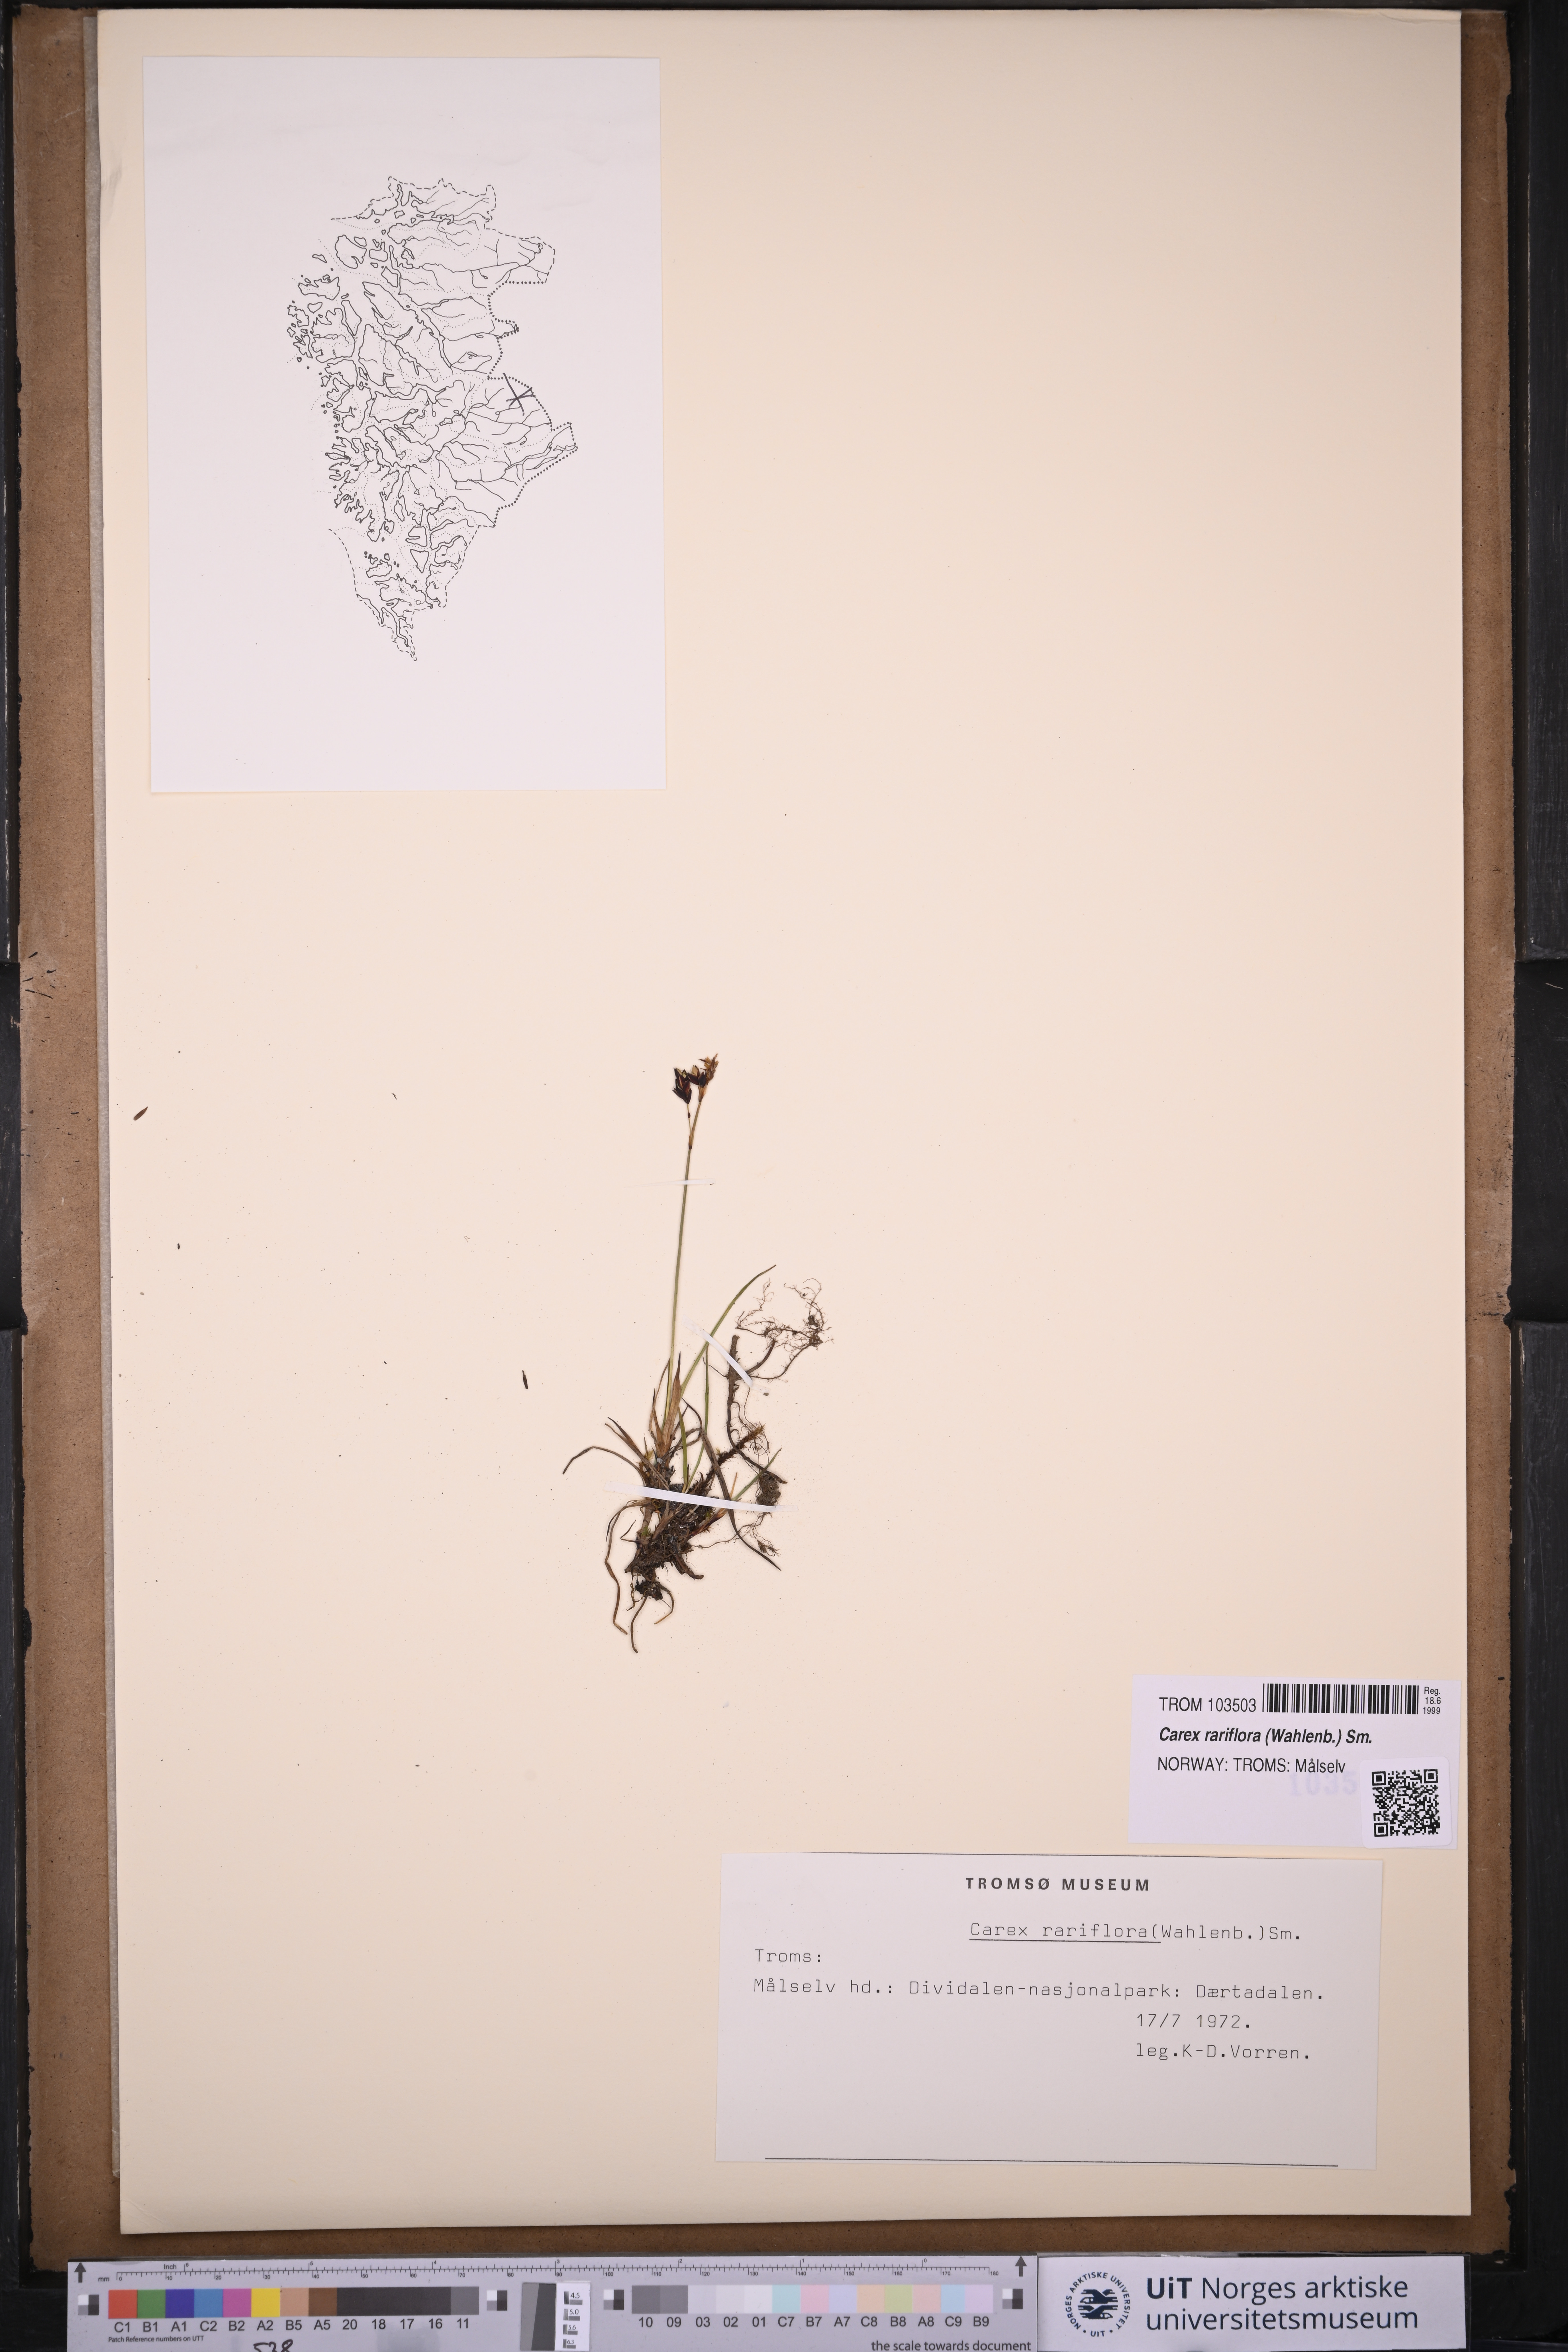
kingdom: Plantae
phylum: Tracheophyta
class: Liliopsida
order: Poales
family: Cyperaceae
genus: Carex
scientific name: Carex rariflora
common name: Loose-flowered alpine sedge
